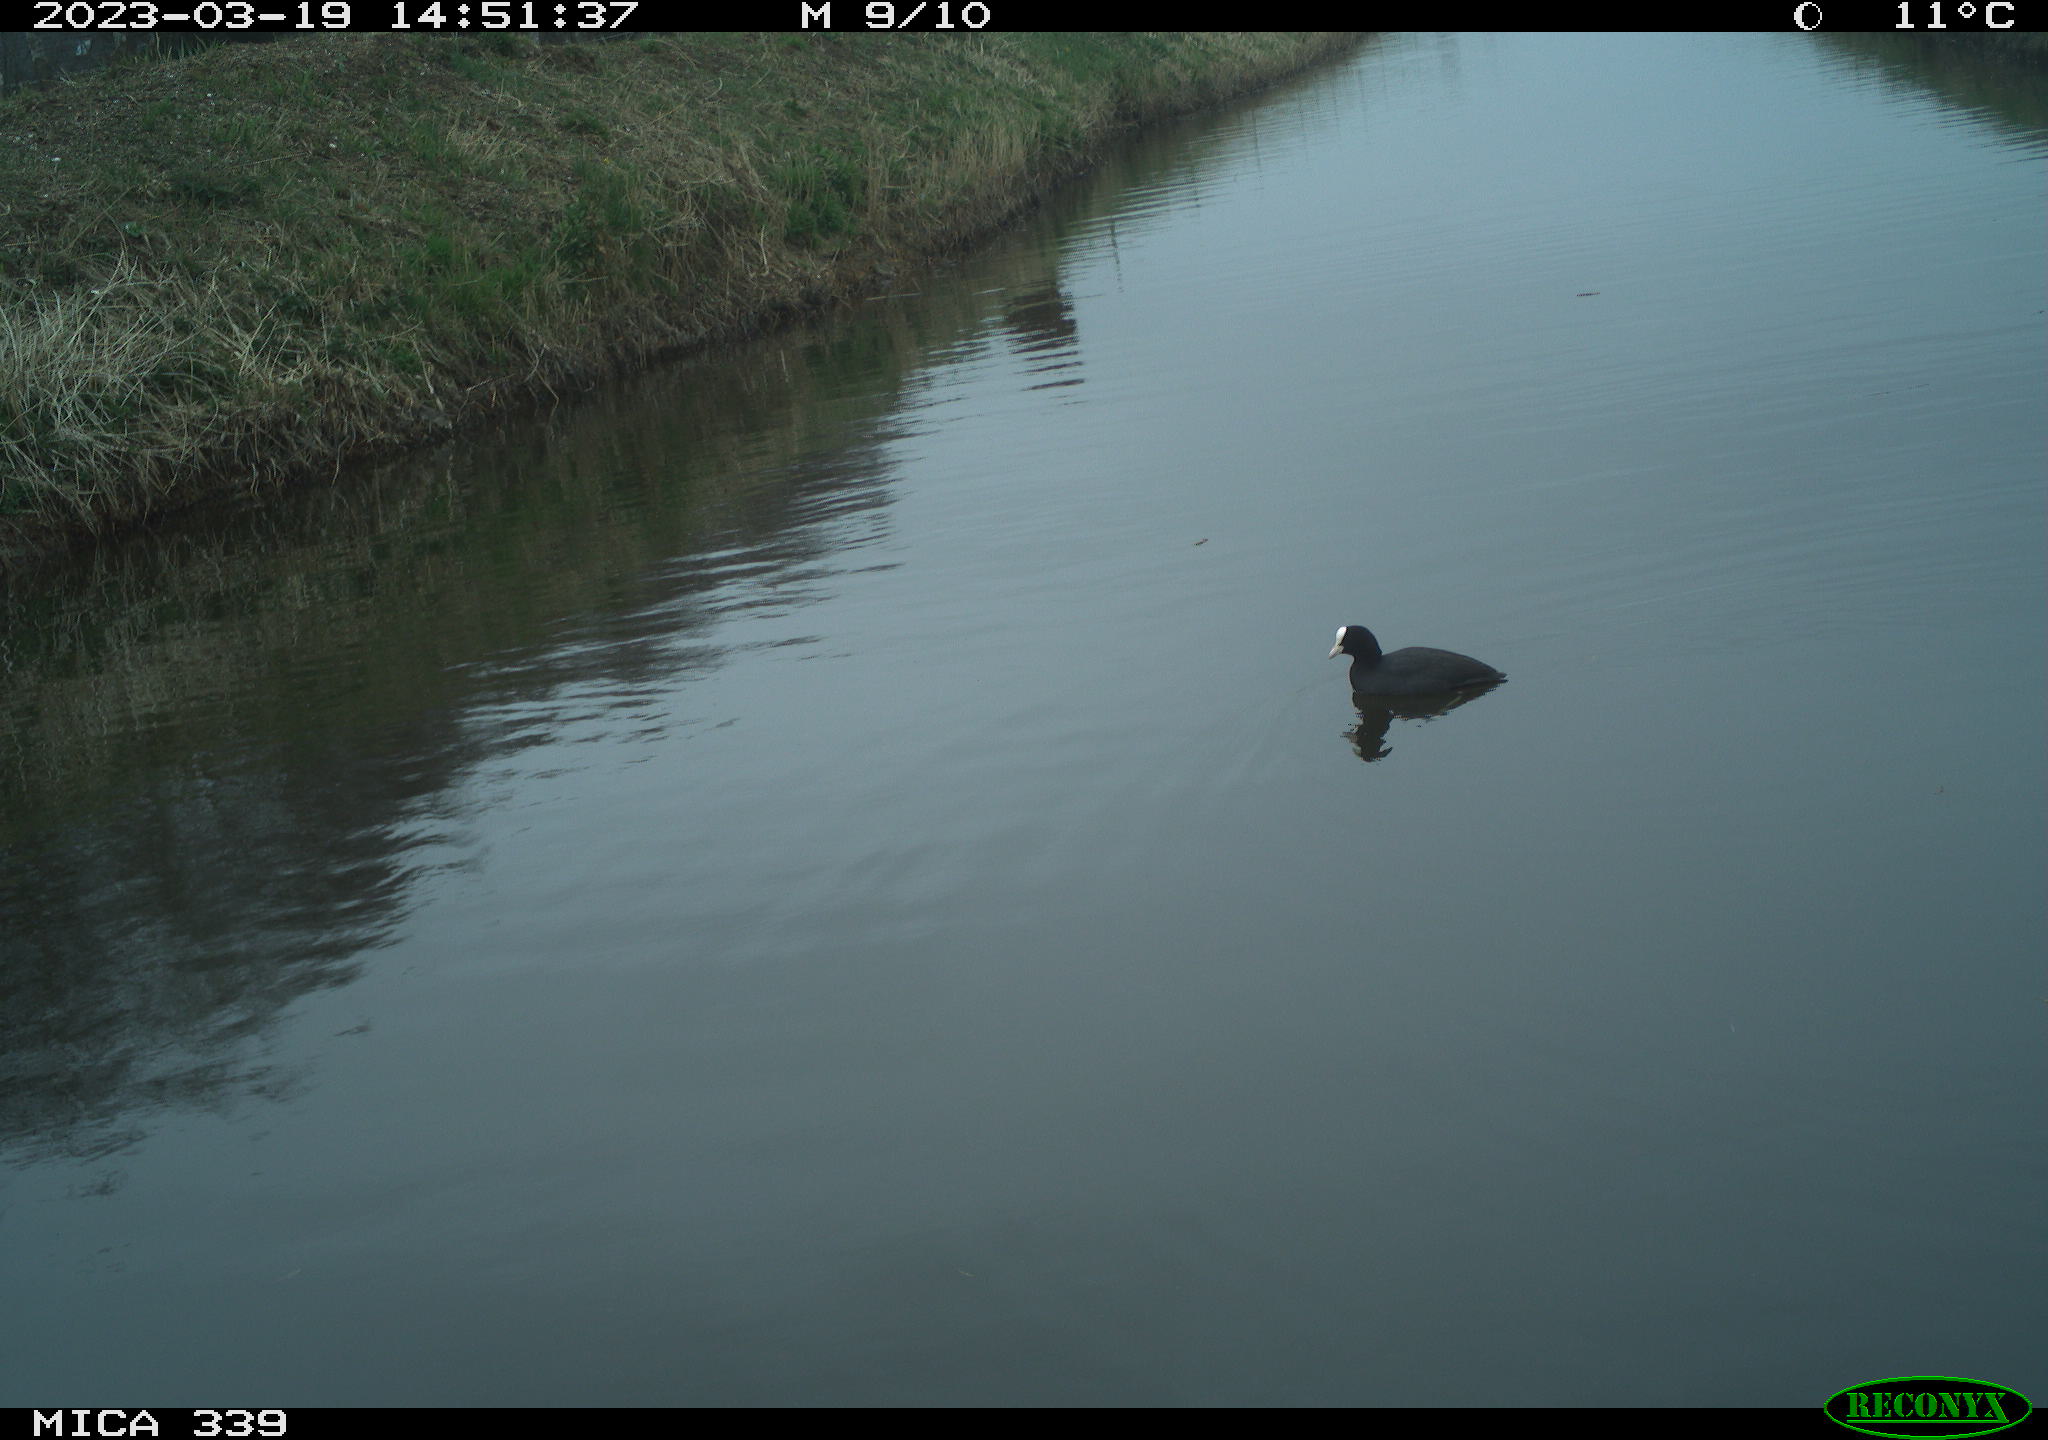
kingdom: Animalia
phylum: Chordata
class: Aves
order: Gruiformes
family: Rallidae
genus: Fulica
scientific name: Fulica atra
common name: Eurasian coot
